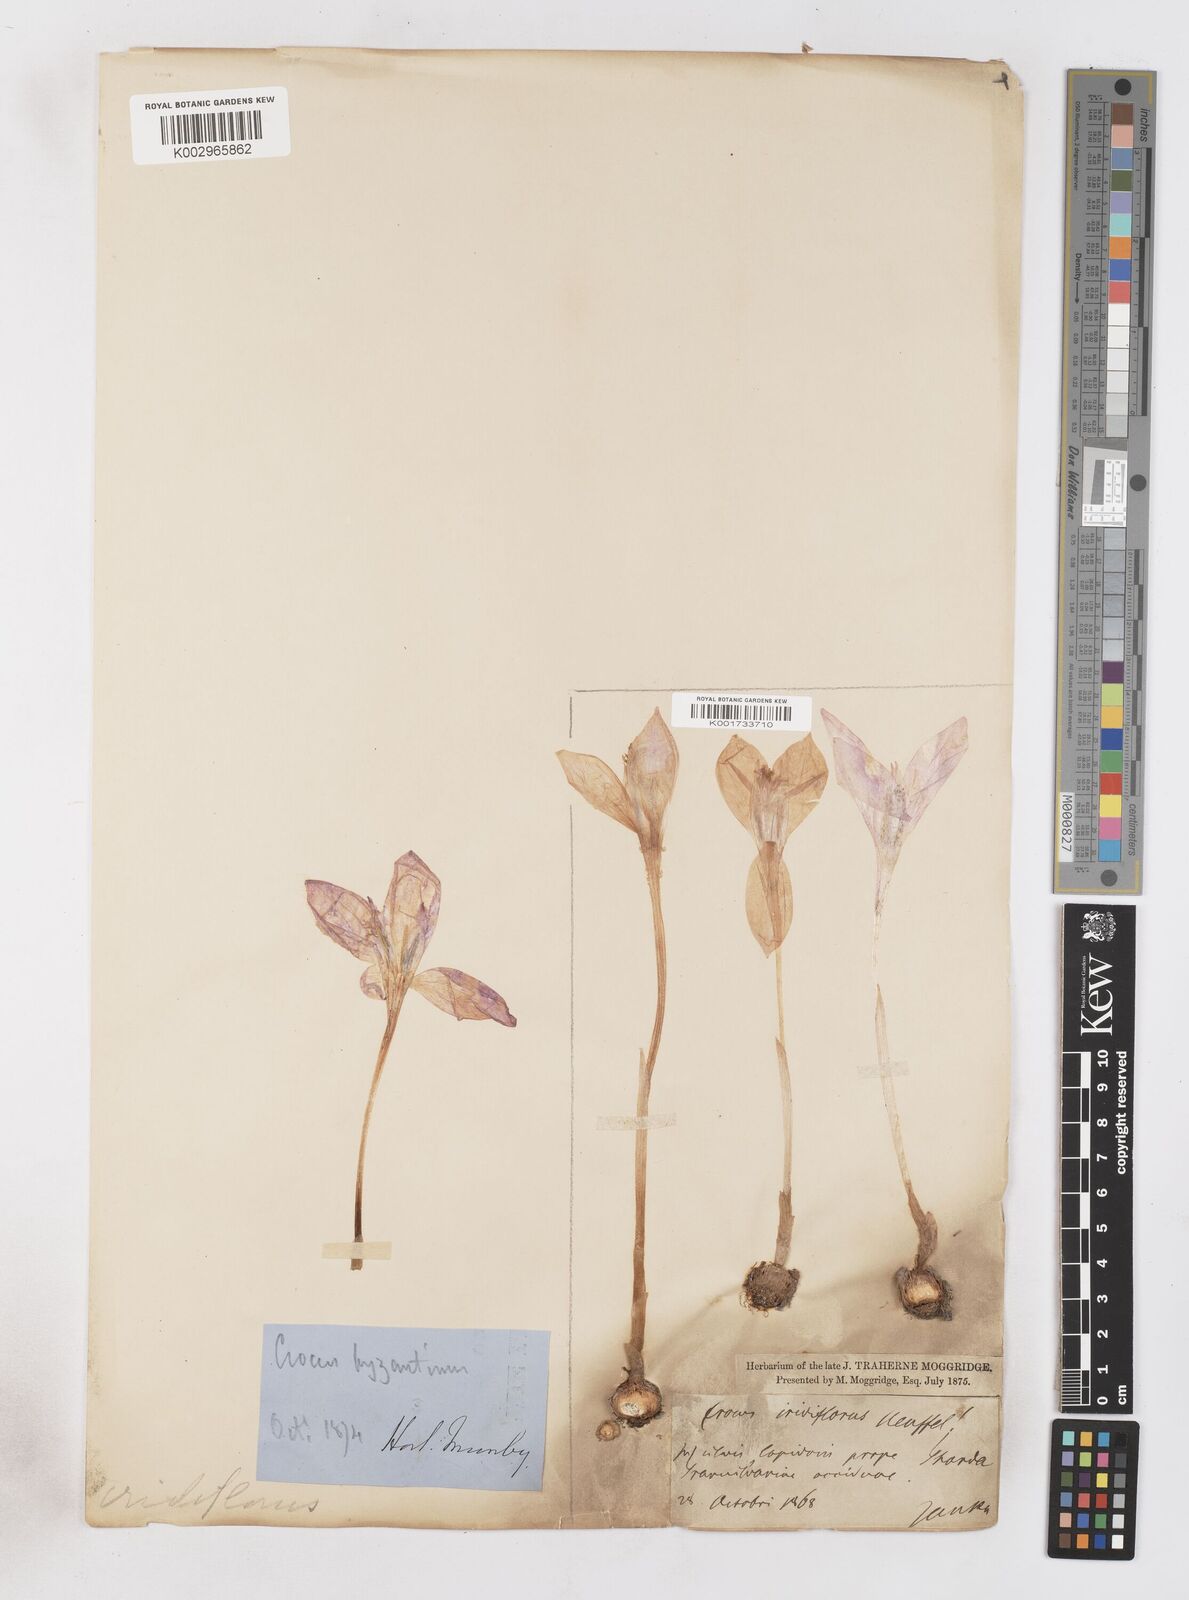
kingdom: Plantae
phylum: Tracheophyta
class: Liliopsida
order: Asparagales
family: Iridaceae
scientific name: Iridaceae
